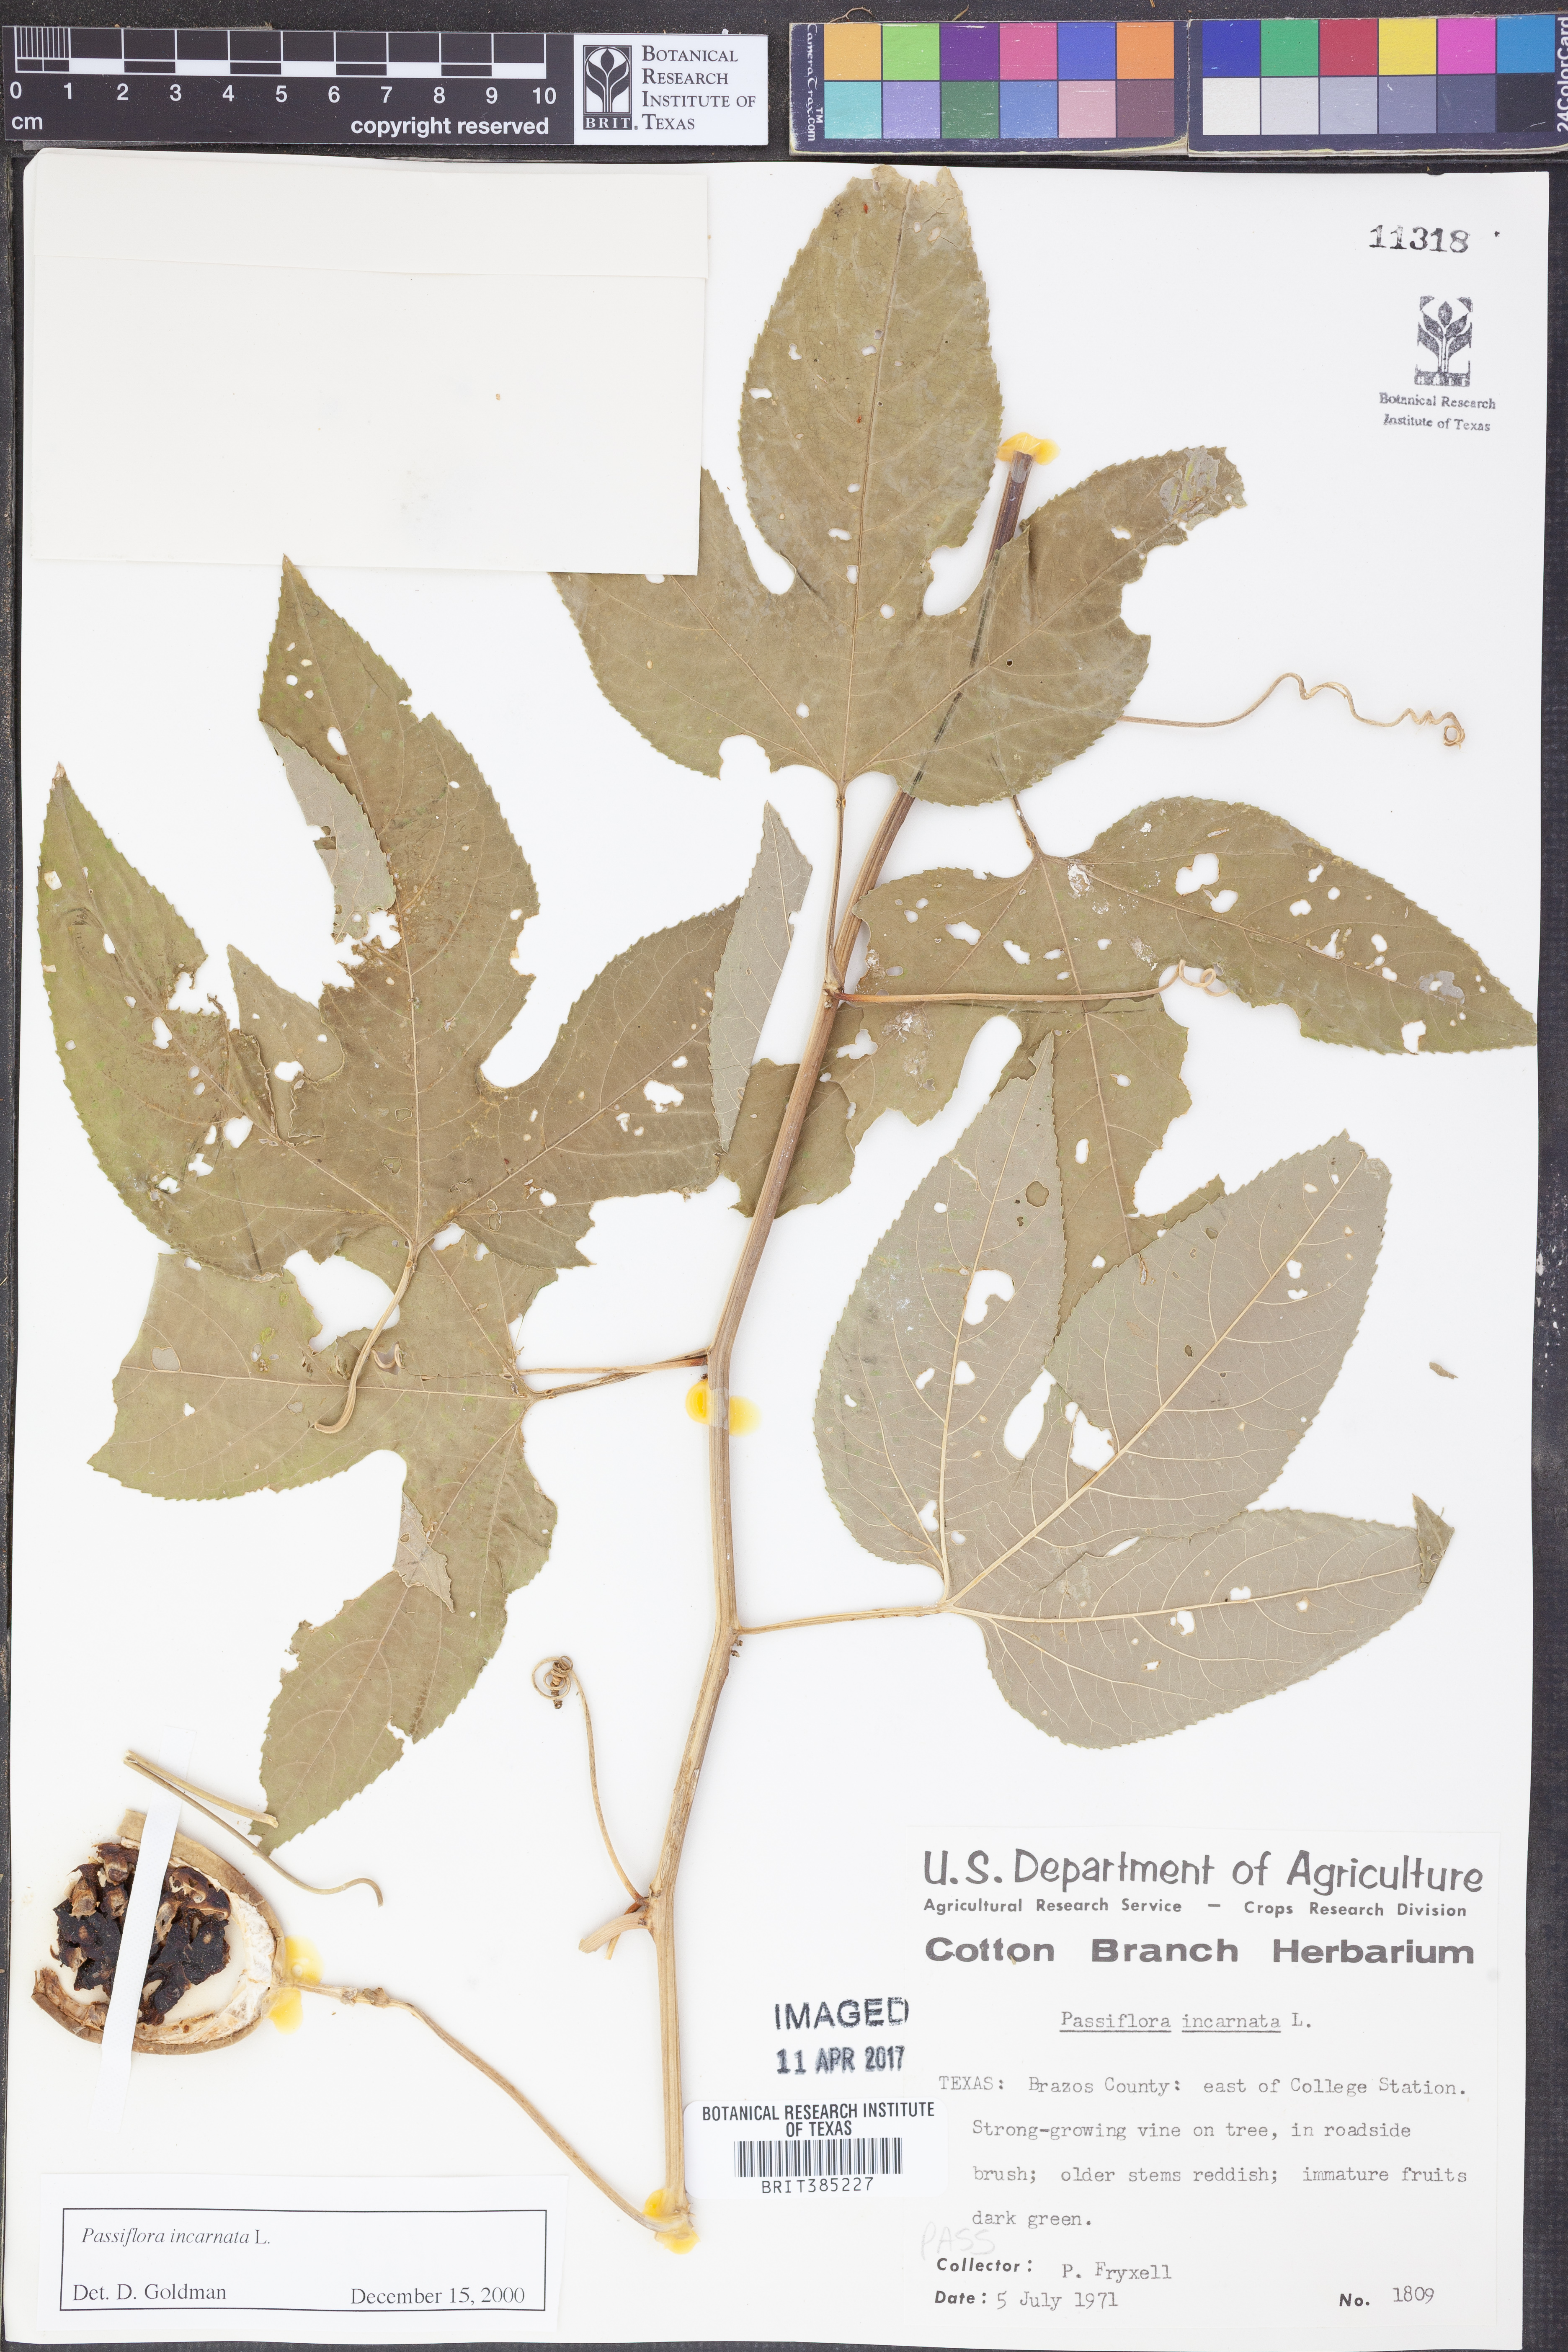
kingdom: Plantae
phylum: Tracheophyta
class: Magnoliopsida
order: Malpighiales
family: Passifloraceae
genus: Passiflora
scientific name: Passiflora incarnata
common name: Apricot-vine
